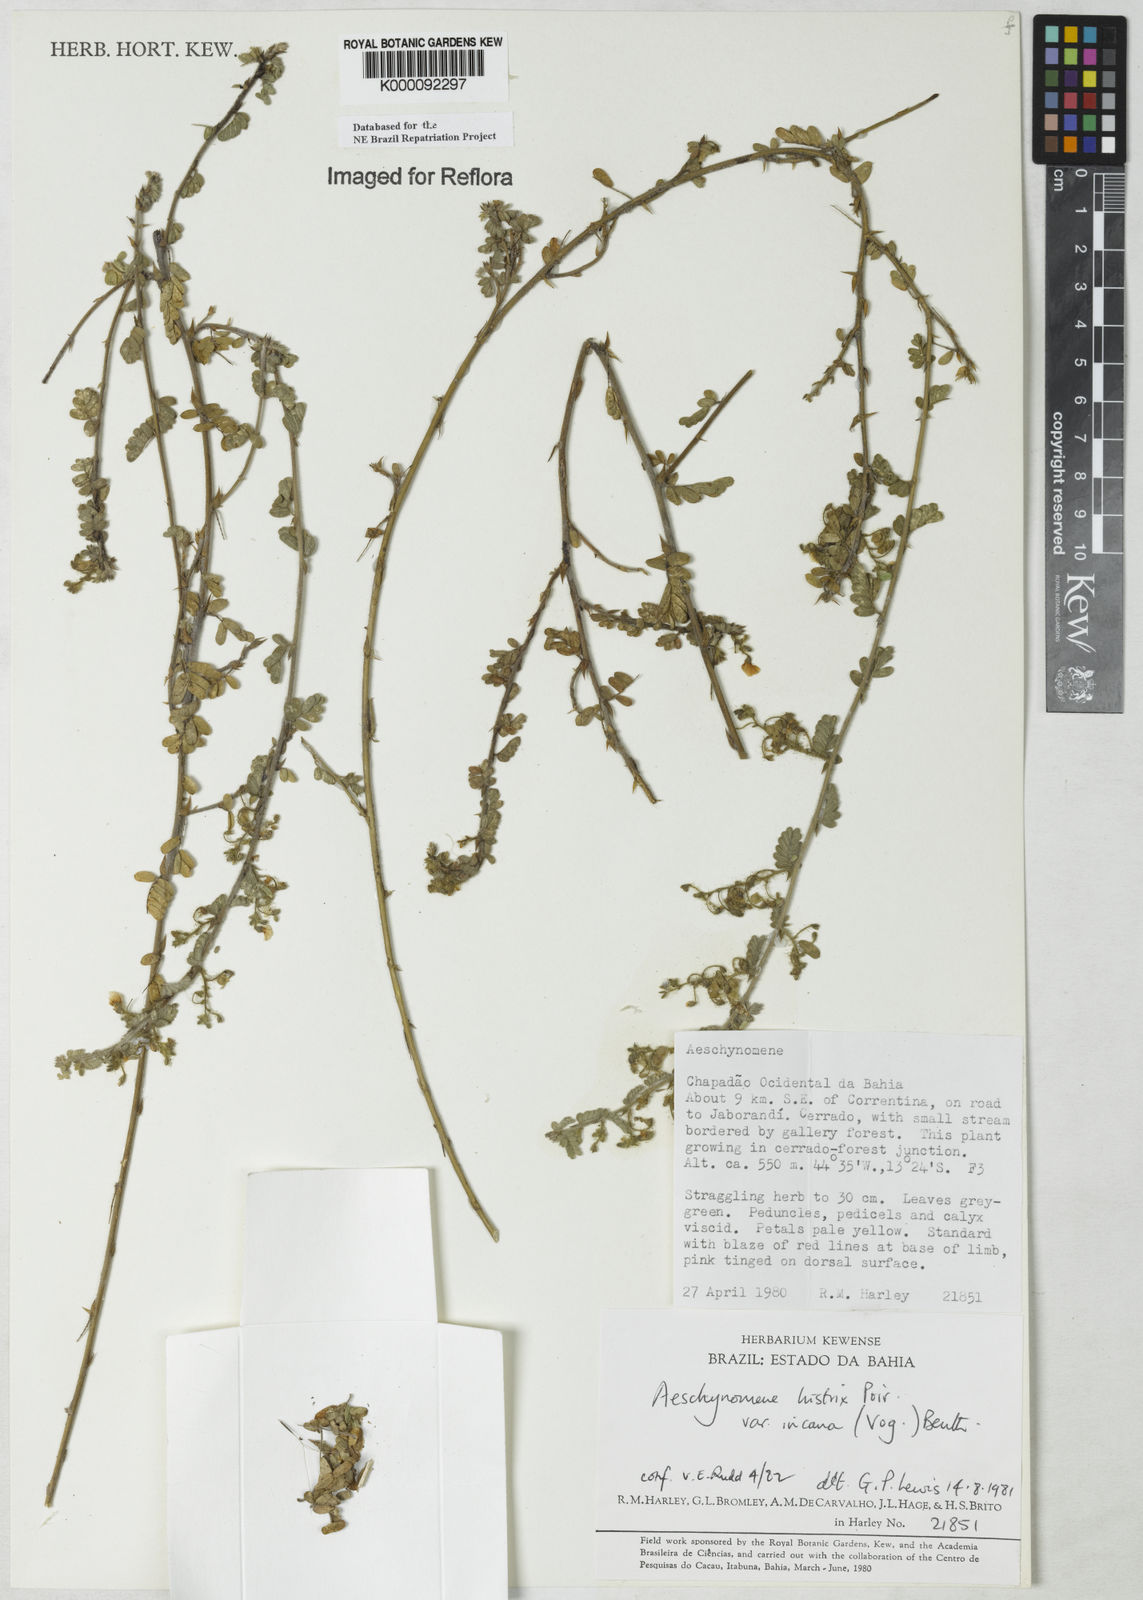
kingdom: Plantae
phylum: Tracheophyta
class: Magnoliopsida
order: Fabales
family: Fabaceae
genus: Ctenodon
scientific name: Ctenodon histrix
